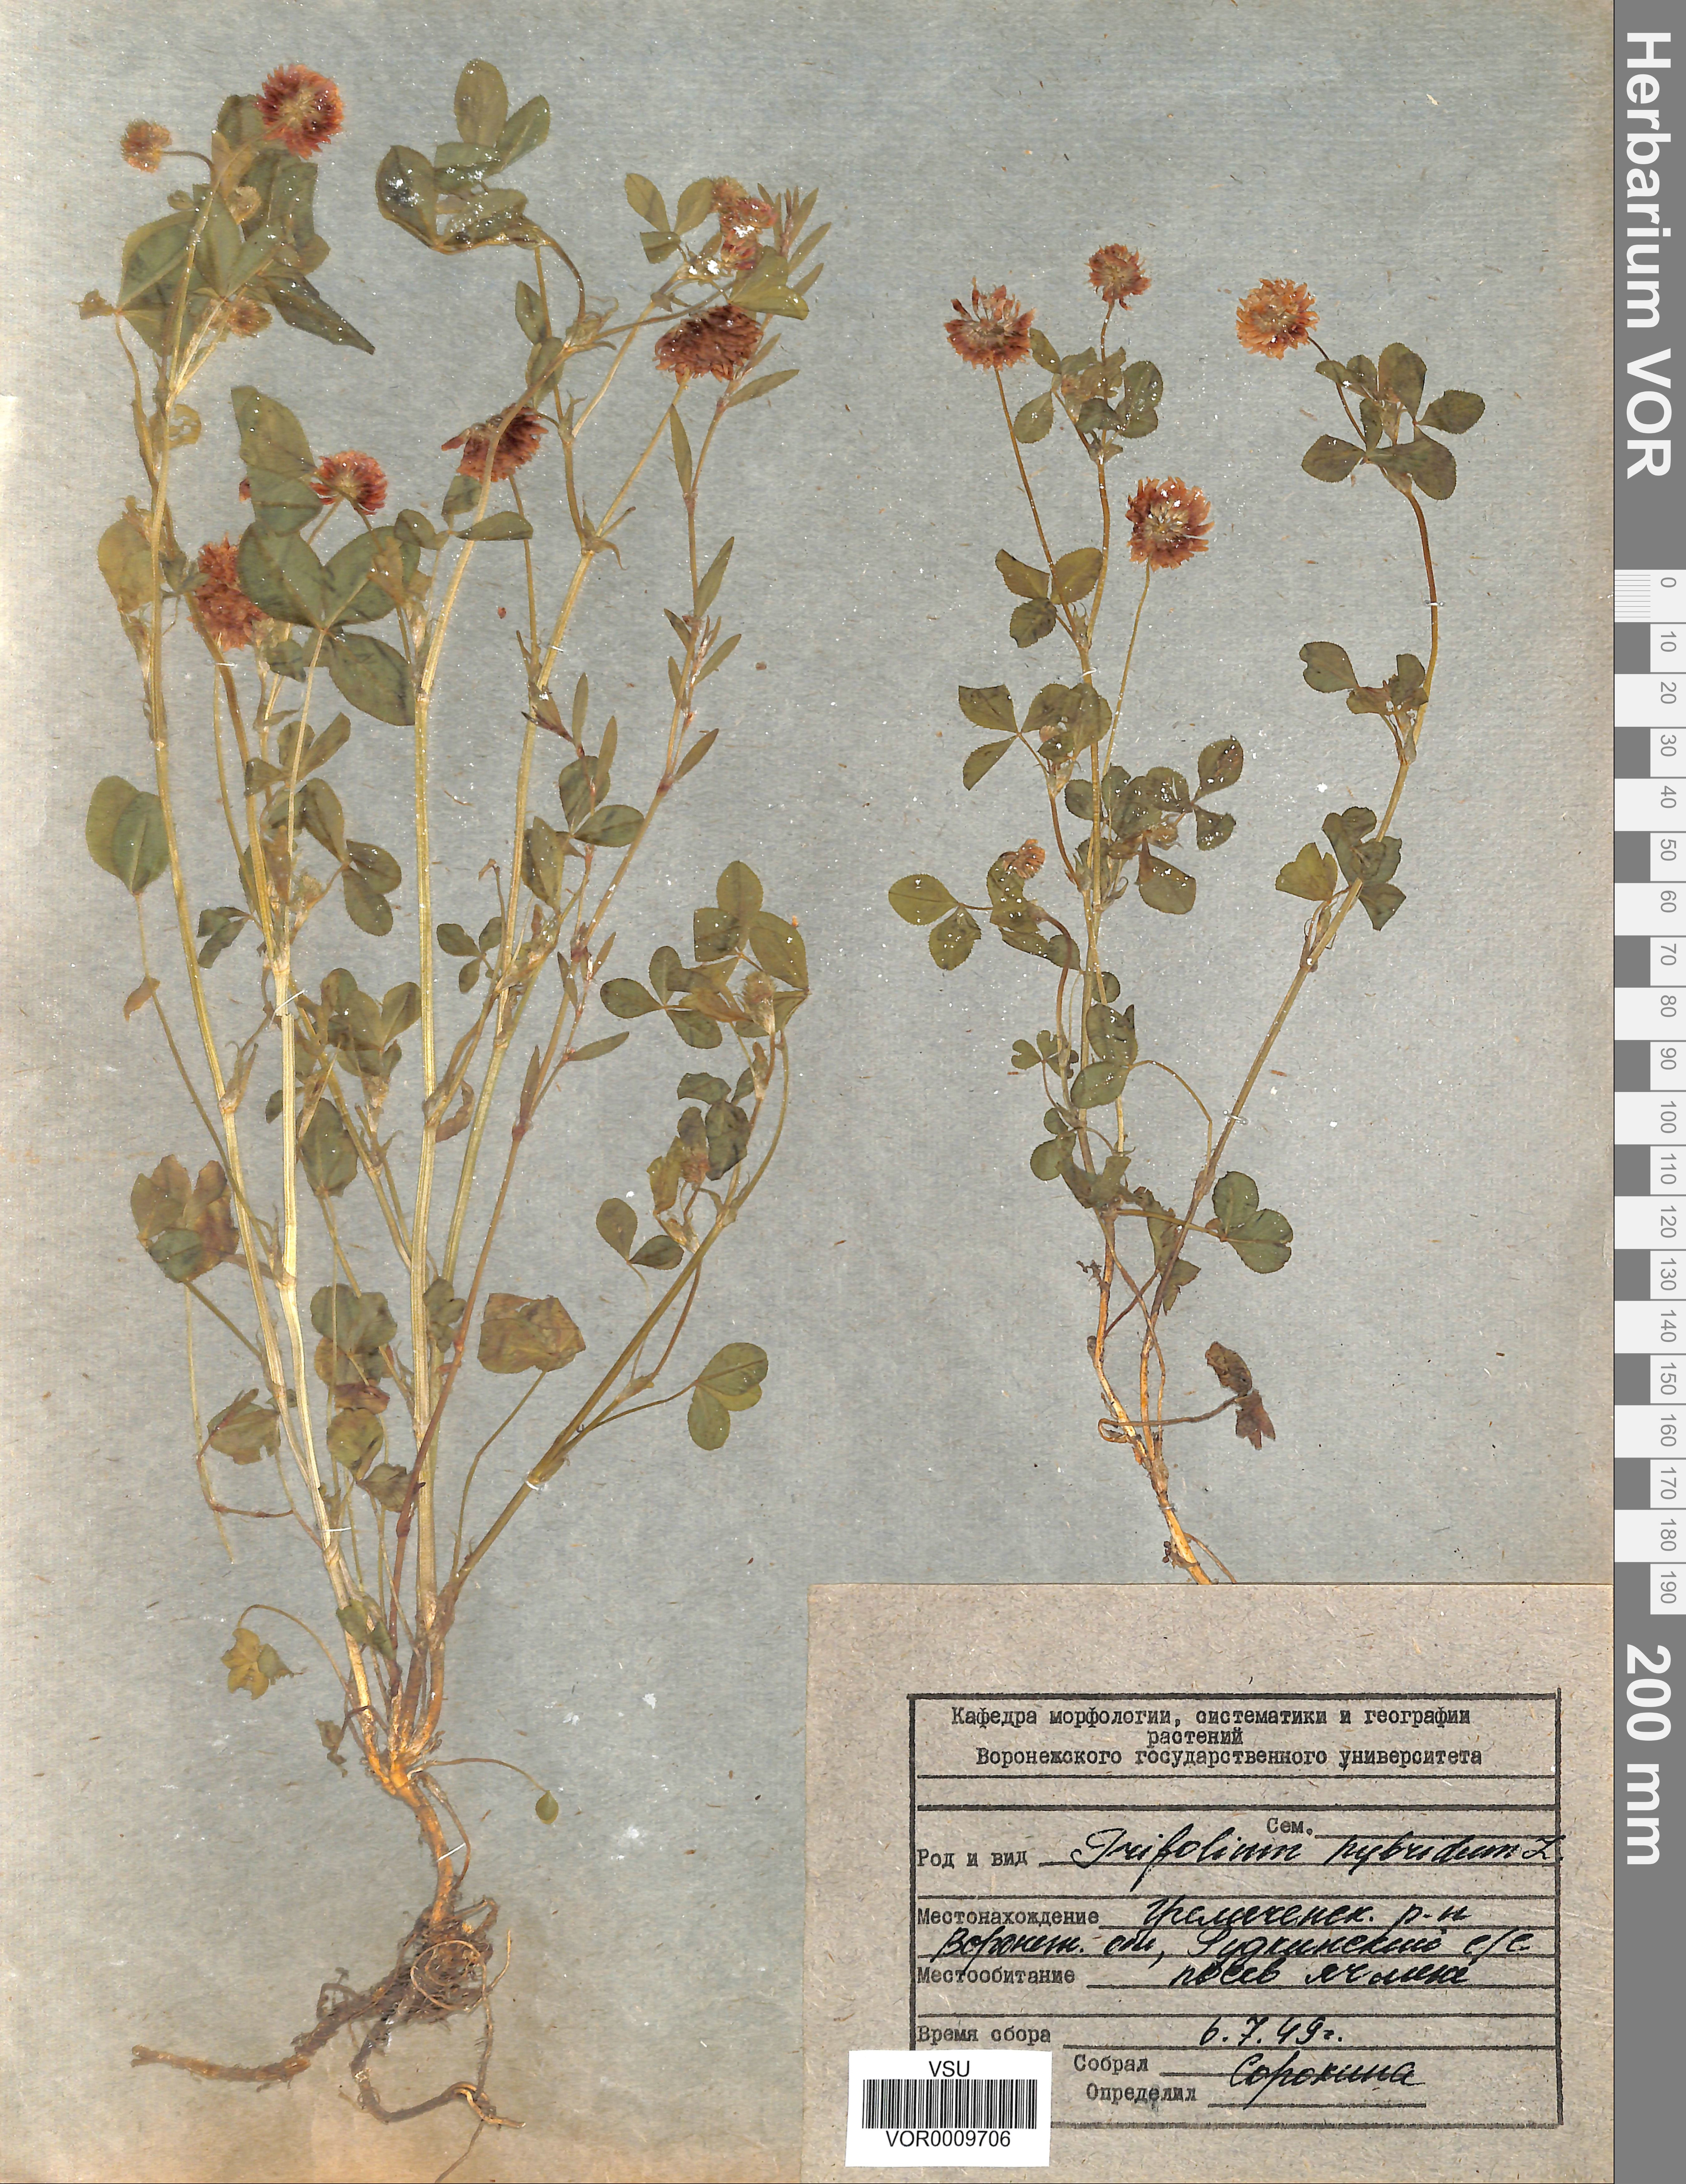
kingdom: Plantae
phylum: Tracheophyta
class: Magnoliopsida
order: Fabales
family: Fabaceae
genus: Trifolium
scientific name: Trifolium hybridum
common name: Alsike clover
